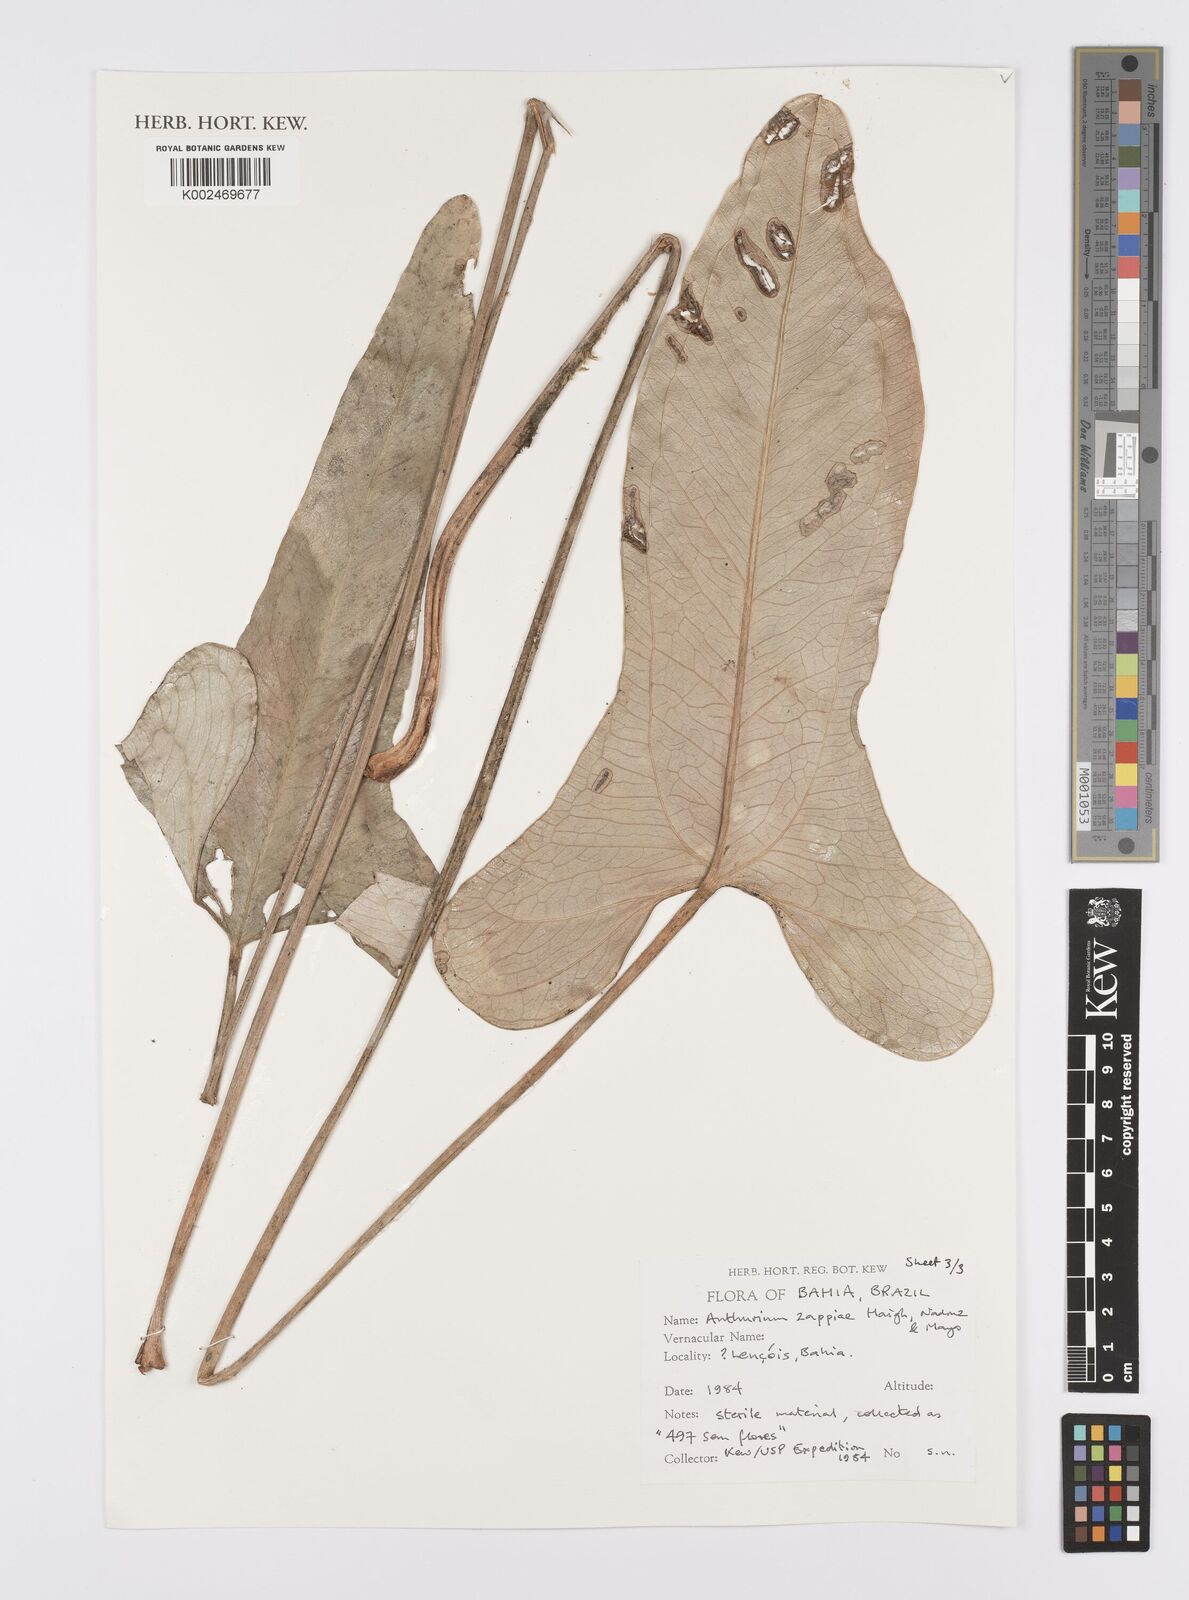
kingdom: Plantae
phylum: Tracheophyta
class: Liliopsida
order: Alismatales
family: Araceae
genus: Anthurium
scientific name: Anthurium zappiae
